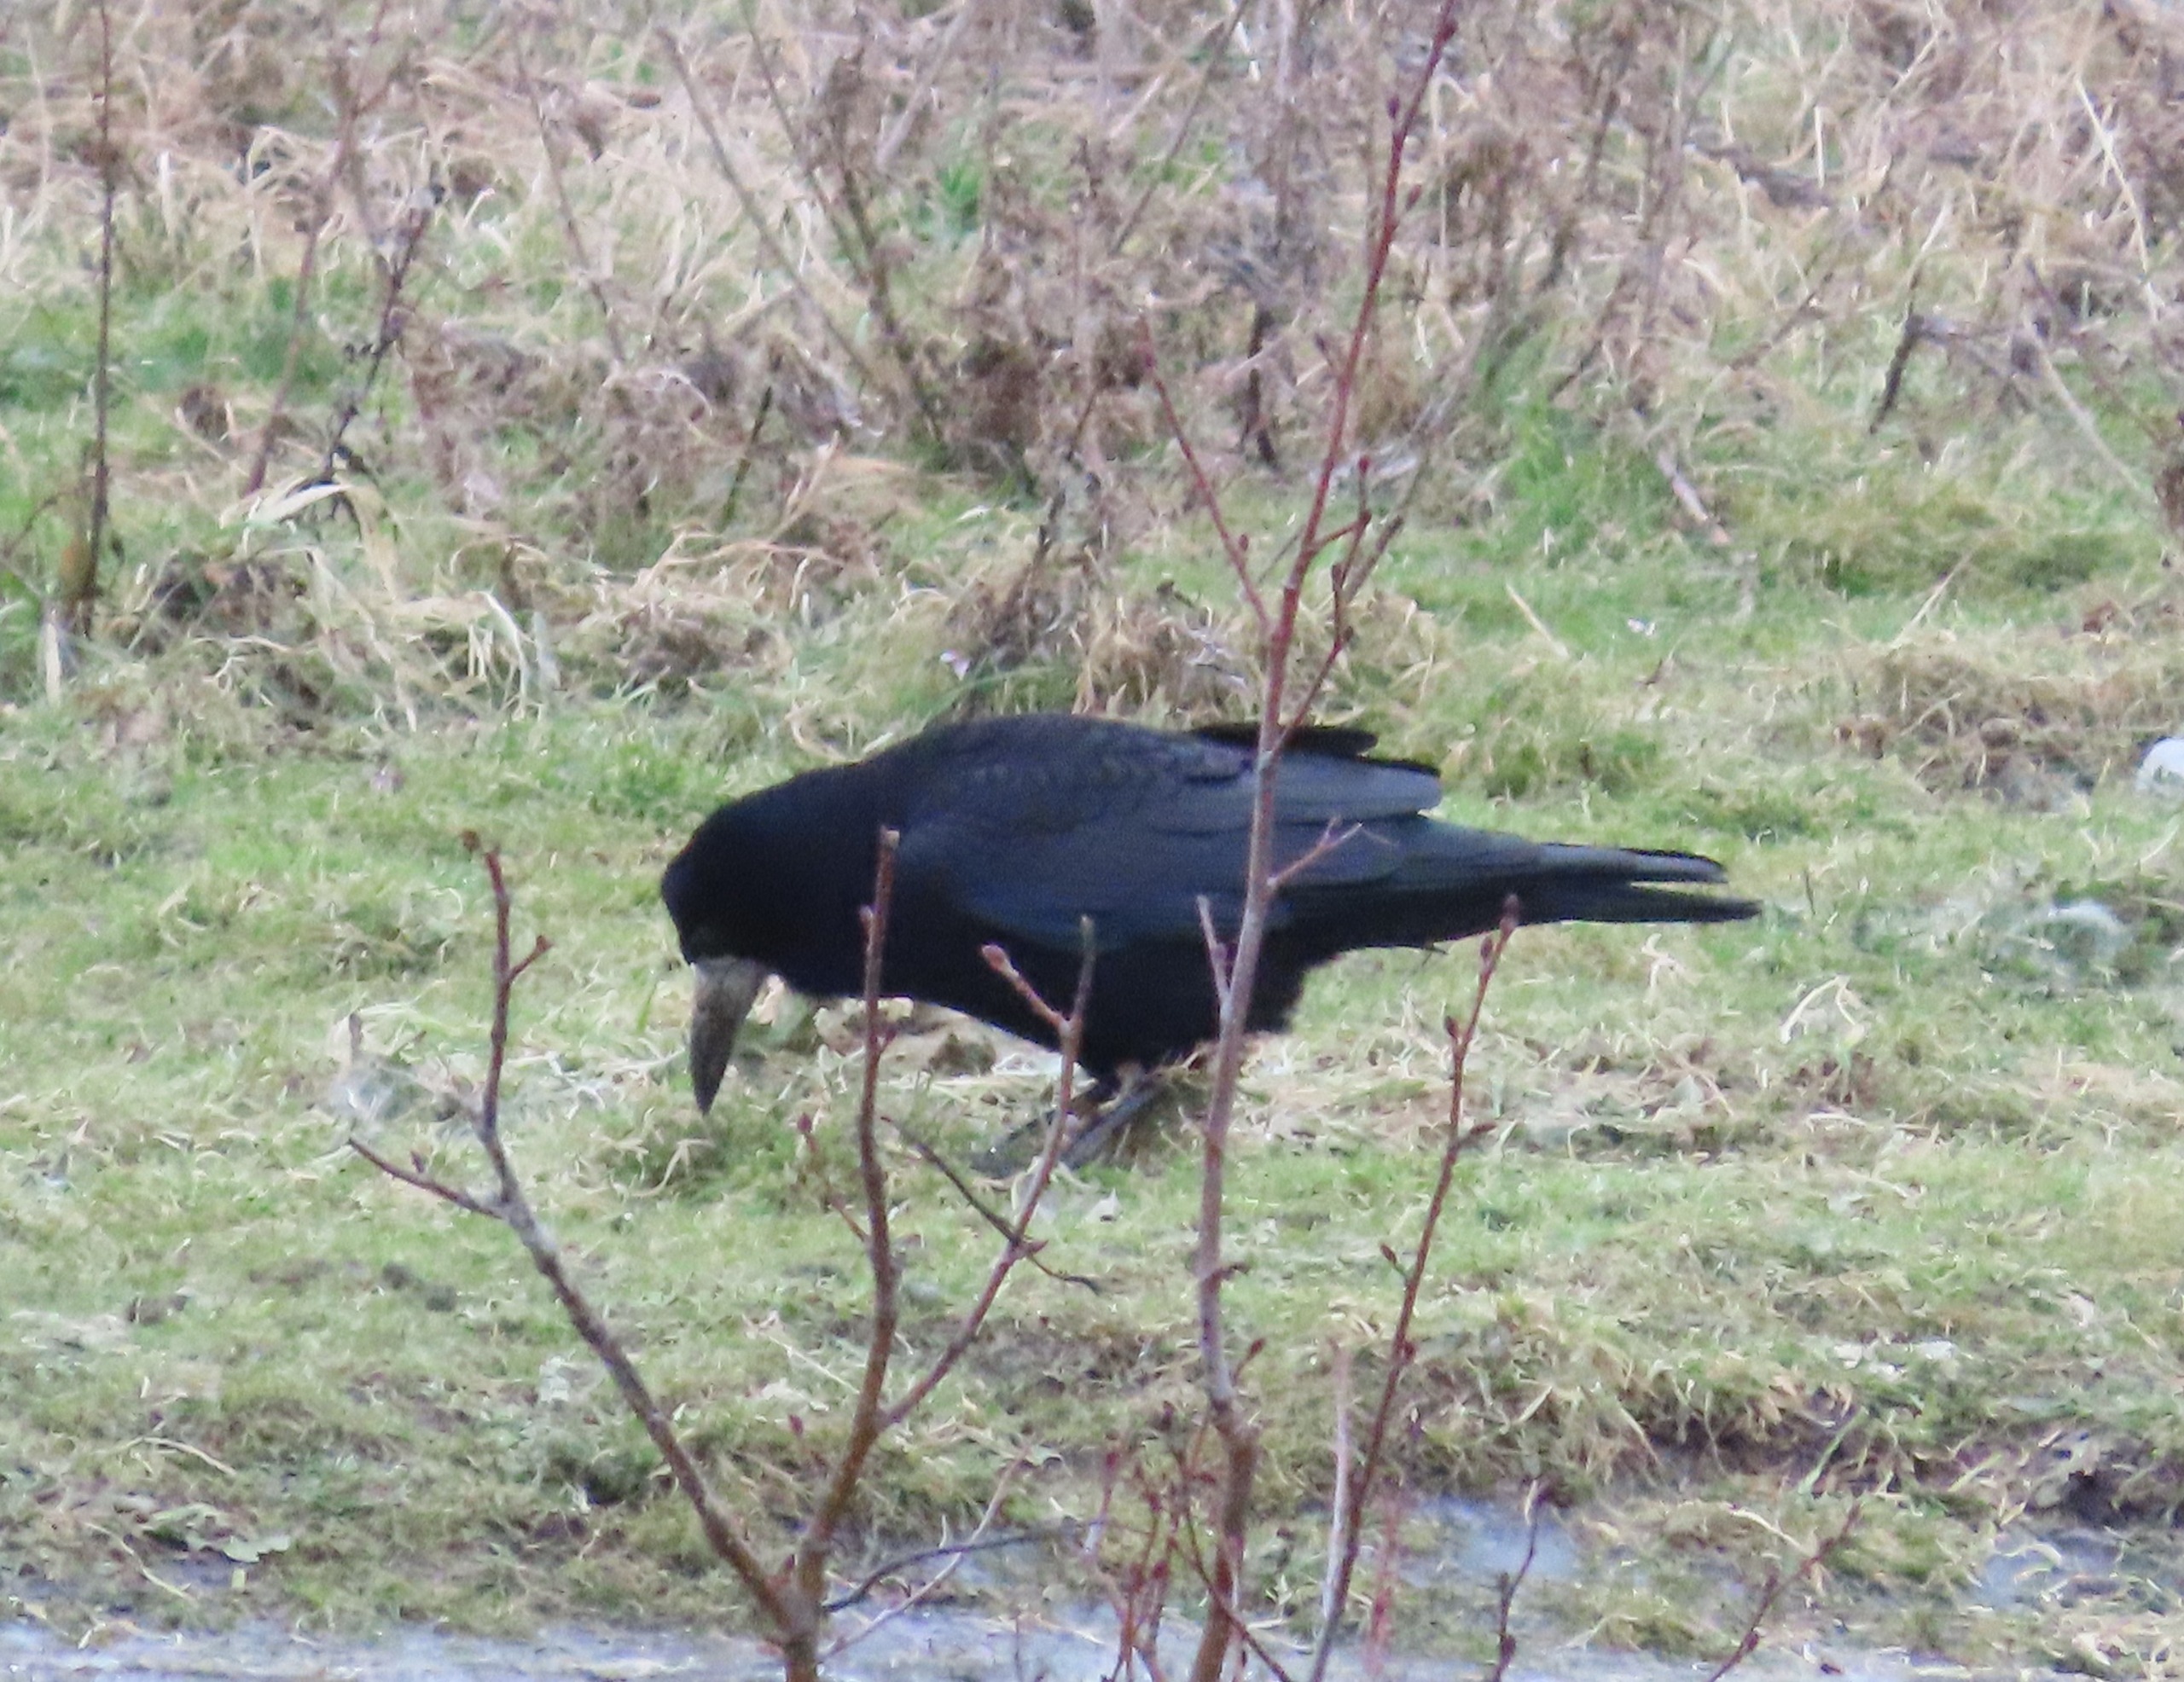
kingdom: Animalia
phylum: Chordata
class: Aves
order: Passeriformes
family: Corvidae
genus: Corvus
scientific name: Corvus frugilegus
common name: Råge
